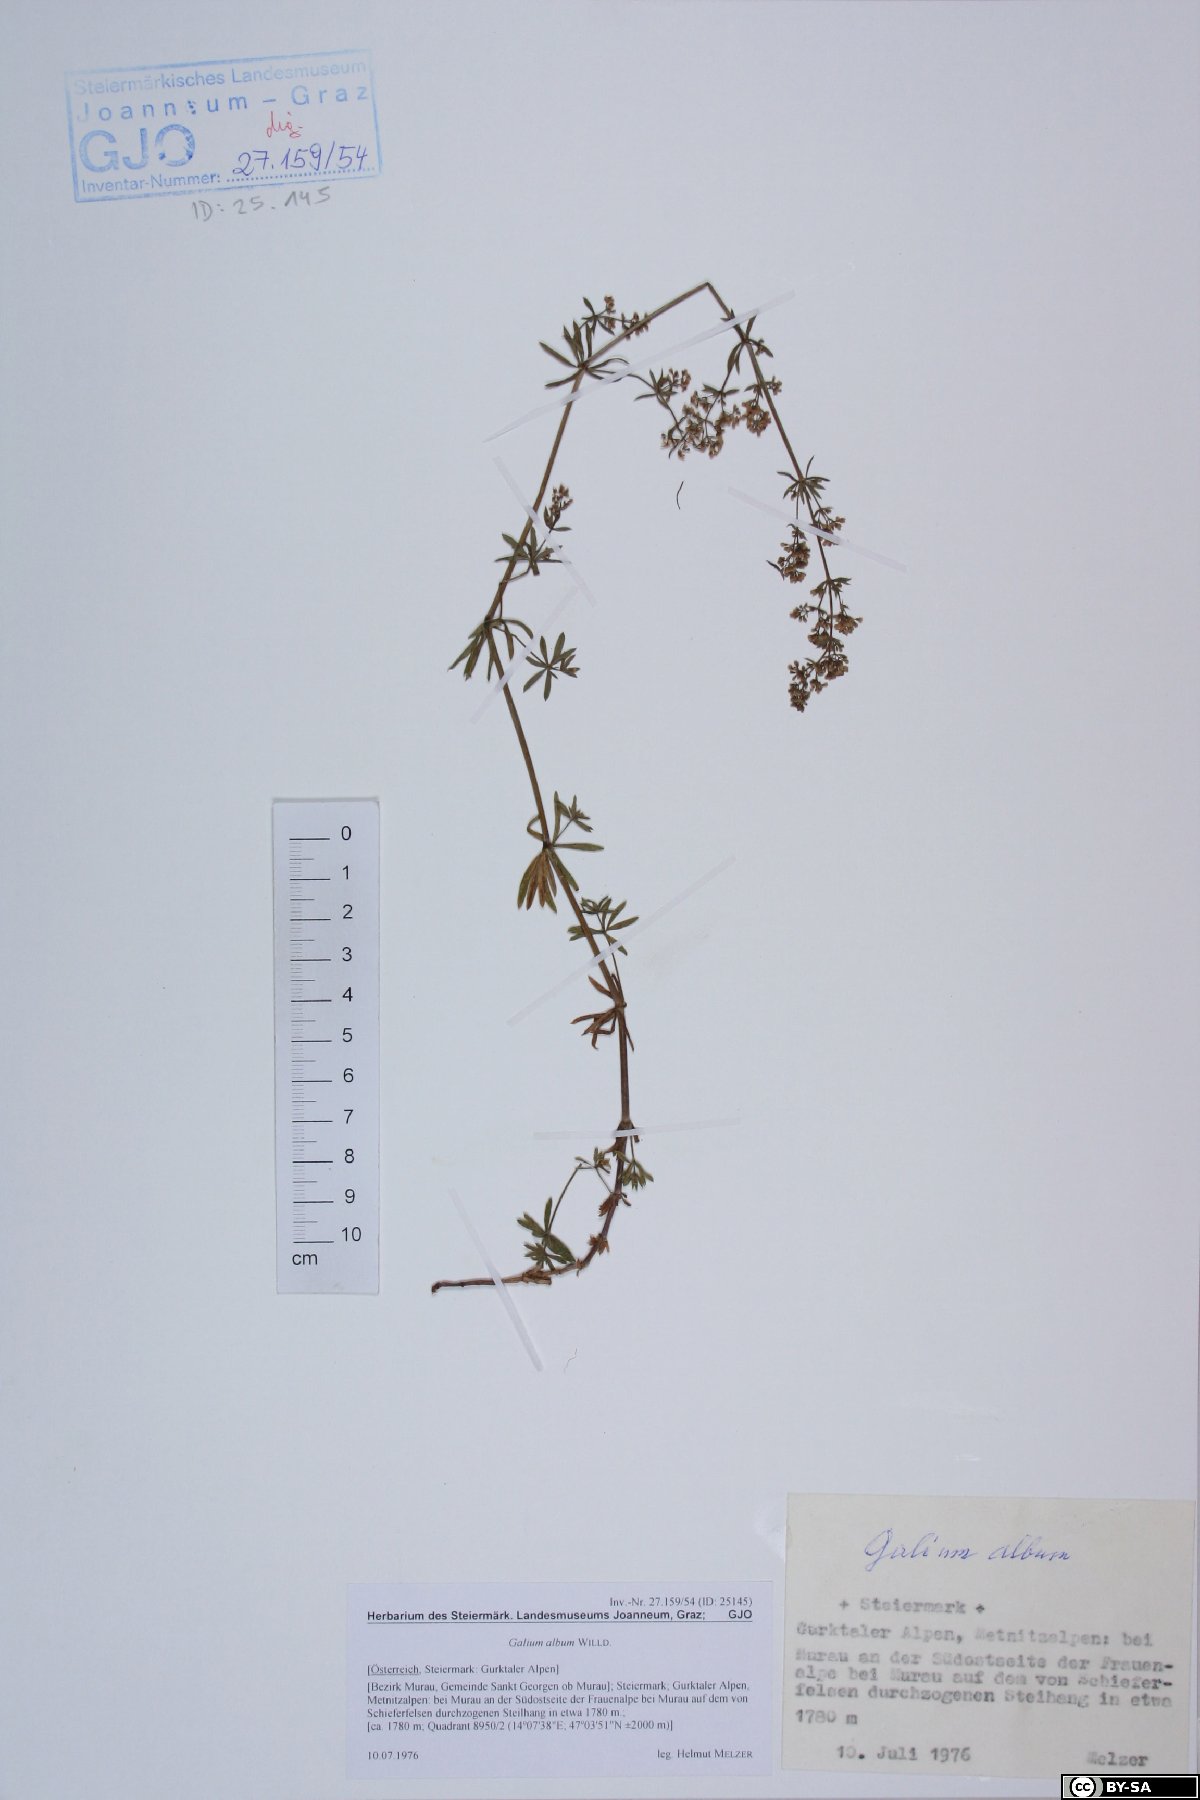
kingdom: Plantae
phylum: Tracheophyta
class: Magnoliopsida
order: Gentianales
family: Rubiaceae
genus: Galium
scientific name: Galium album
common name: White bedstraw
